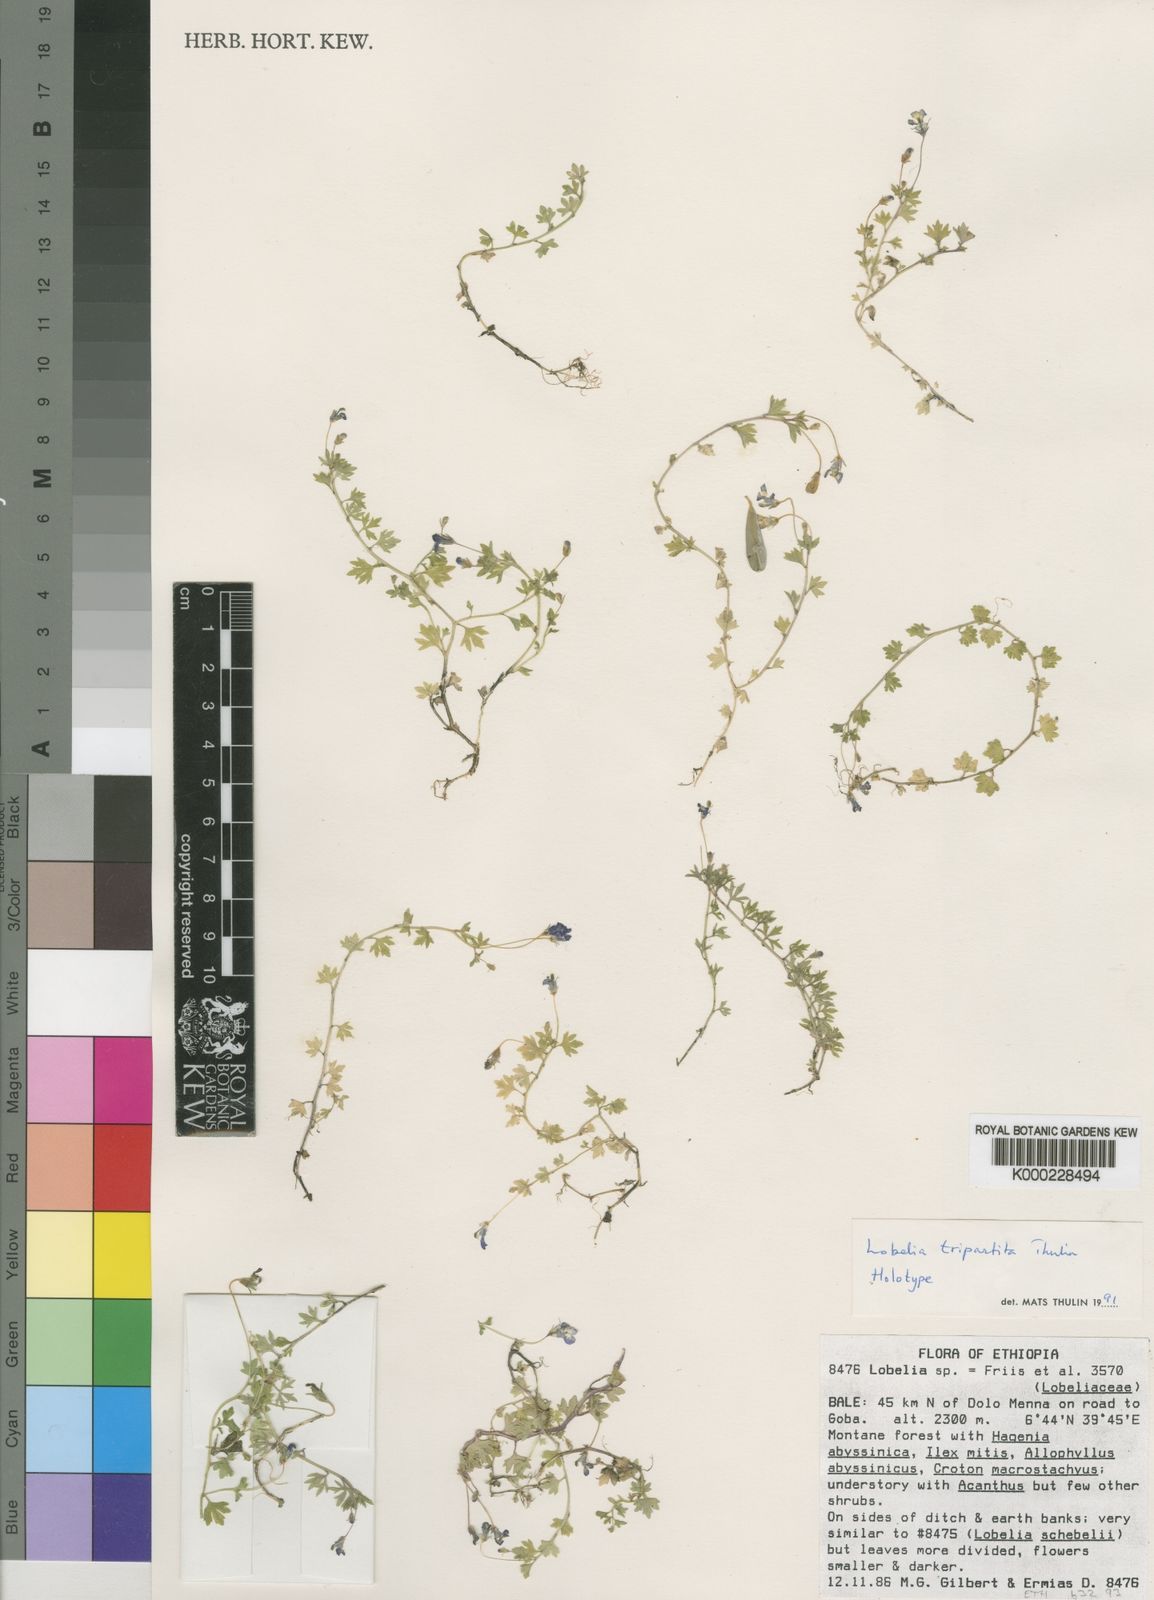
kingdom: Plantae
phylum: Tracheophyta
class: Magnoliopsida
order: Asterales
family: Campanulaceae
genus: Lobelia
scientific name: Lobelia tripartita
